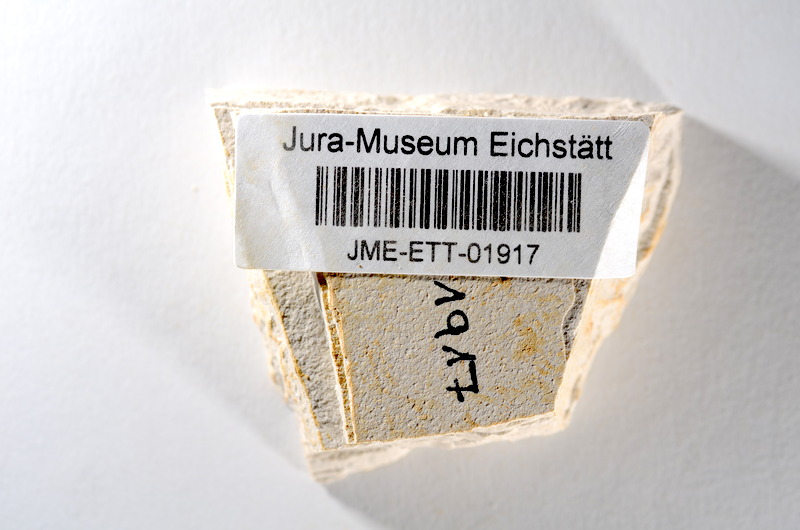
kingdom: Animalia
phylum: Chordata
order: Salmoniformes
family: Orthogonikleithridae
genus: Orthogonikleithrus
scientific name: Orthogonikleithrus hoelli
